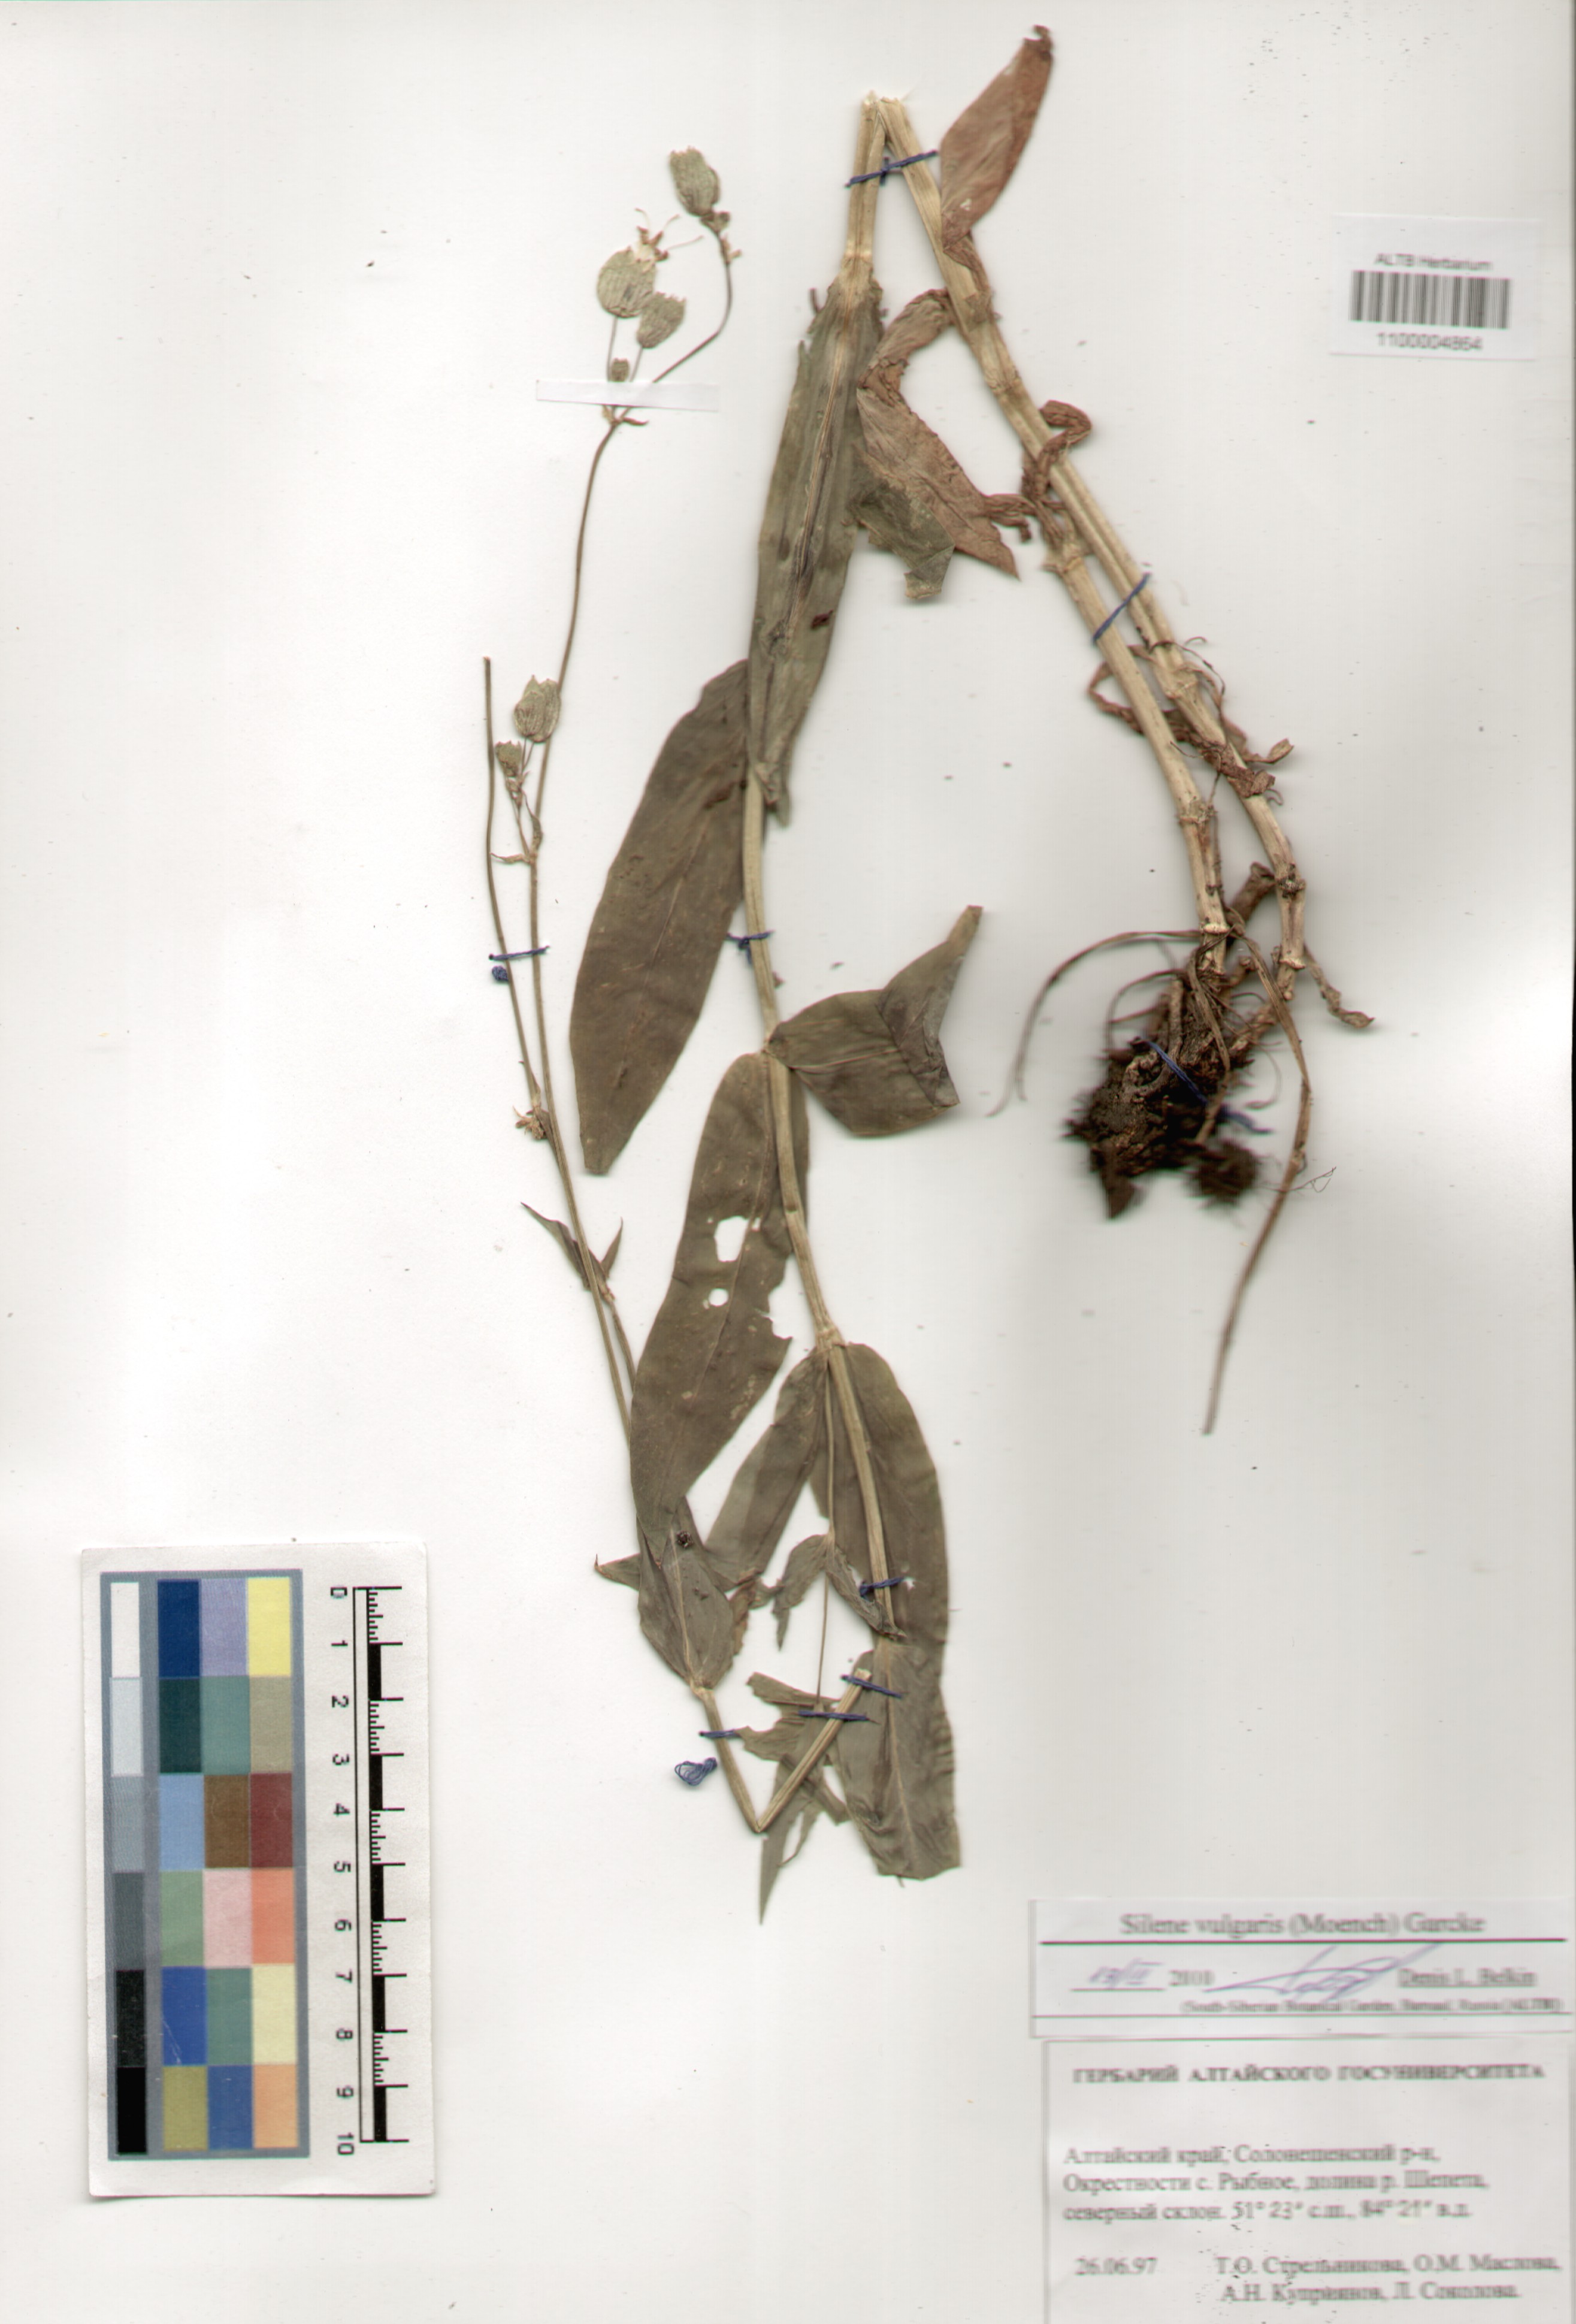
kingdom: Plantae
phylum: Tracheophyta
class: Magnoliopsida
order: Caryophyllales
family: Caryophyllaceae
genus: Silene
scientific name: Silene vulgaris
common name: Bladder campion
